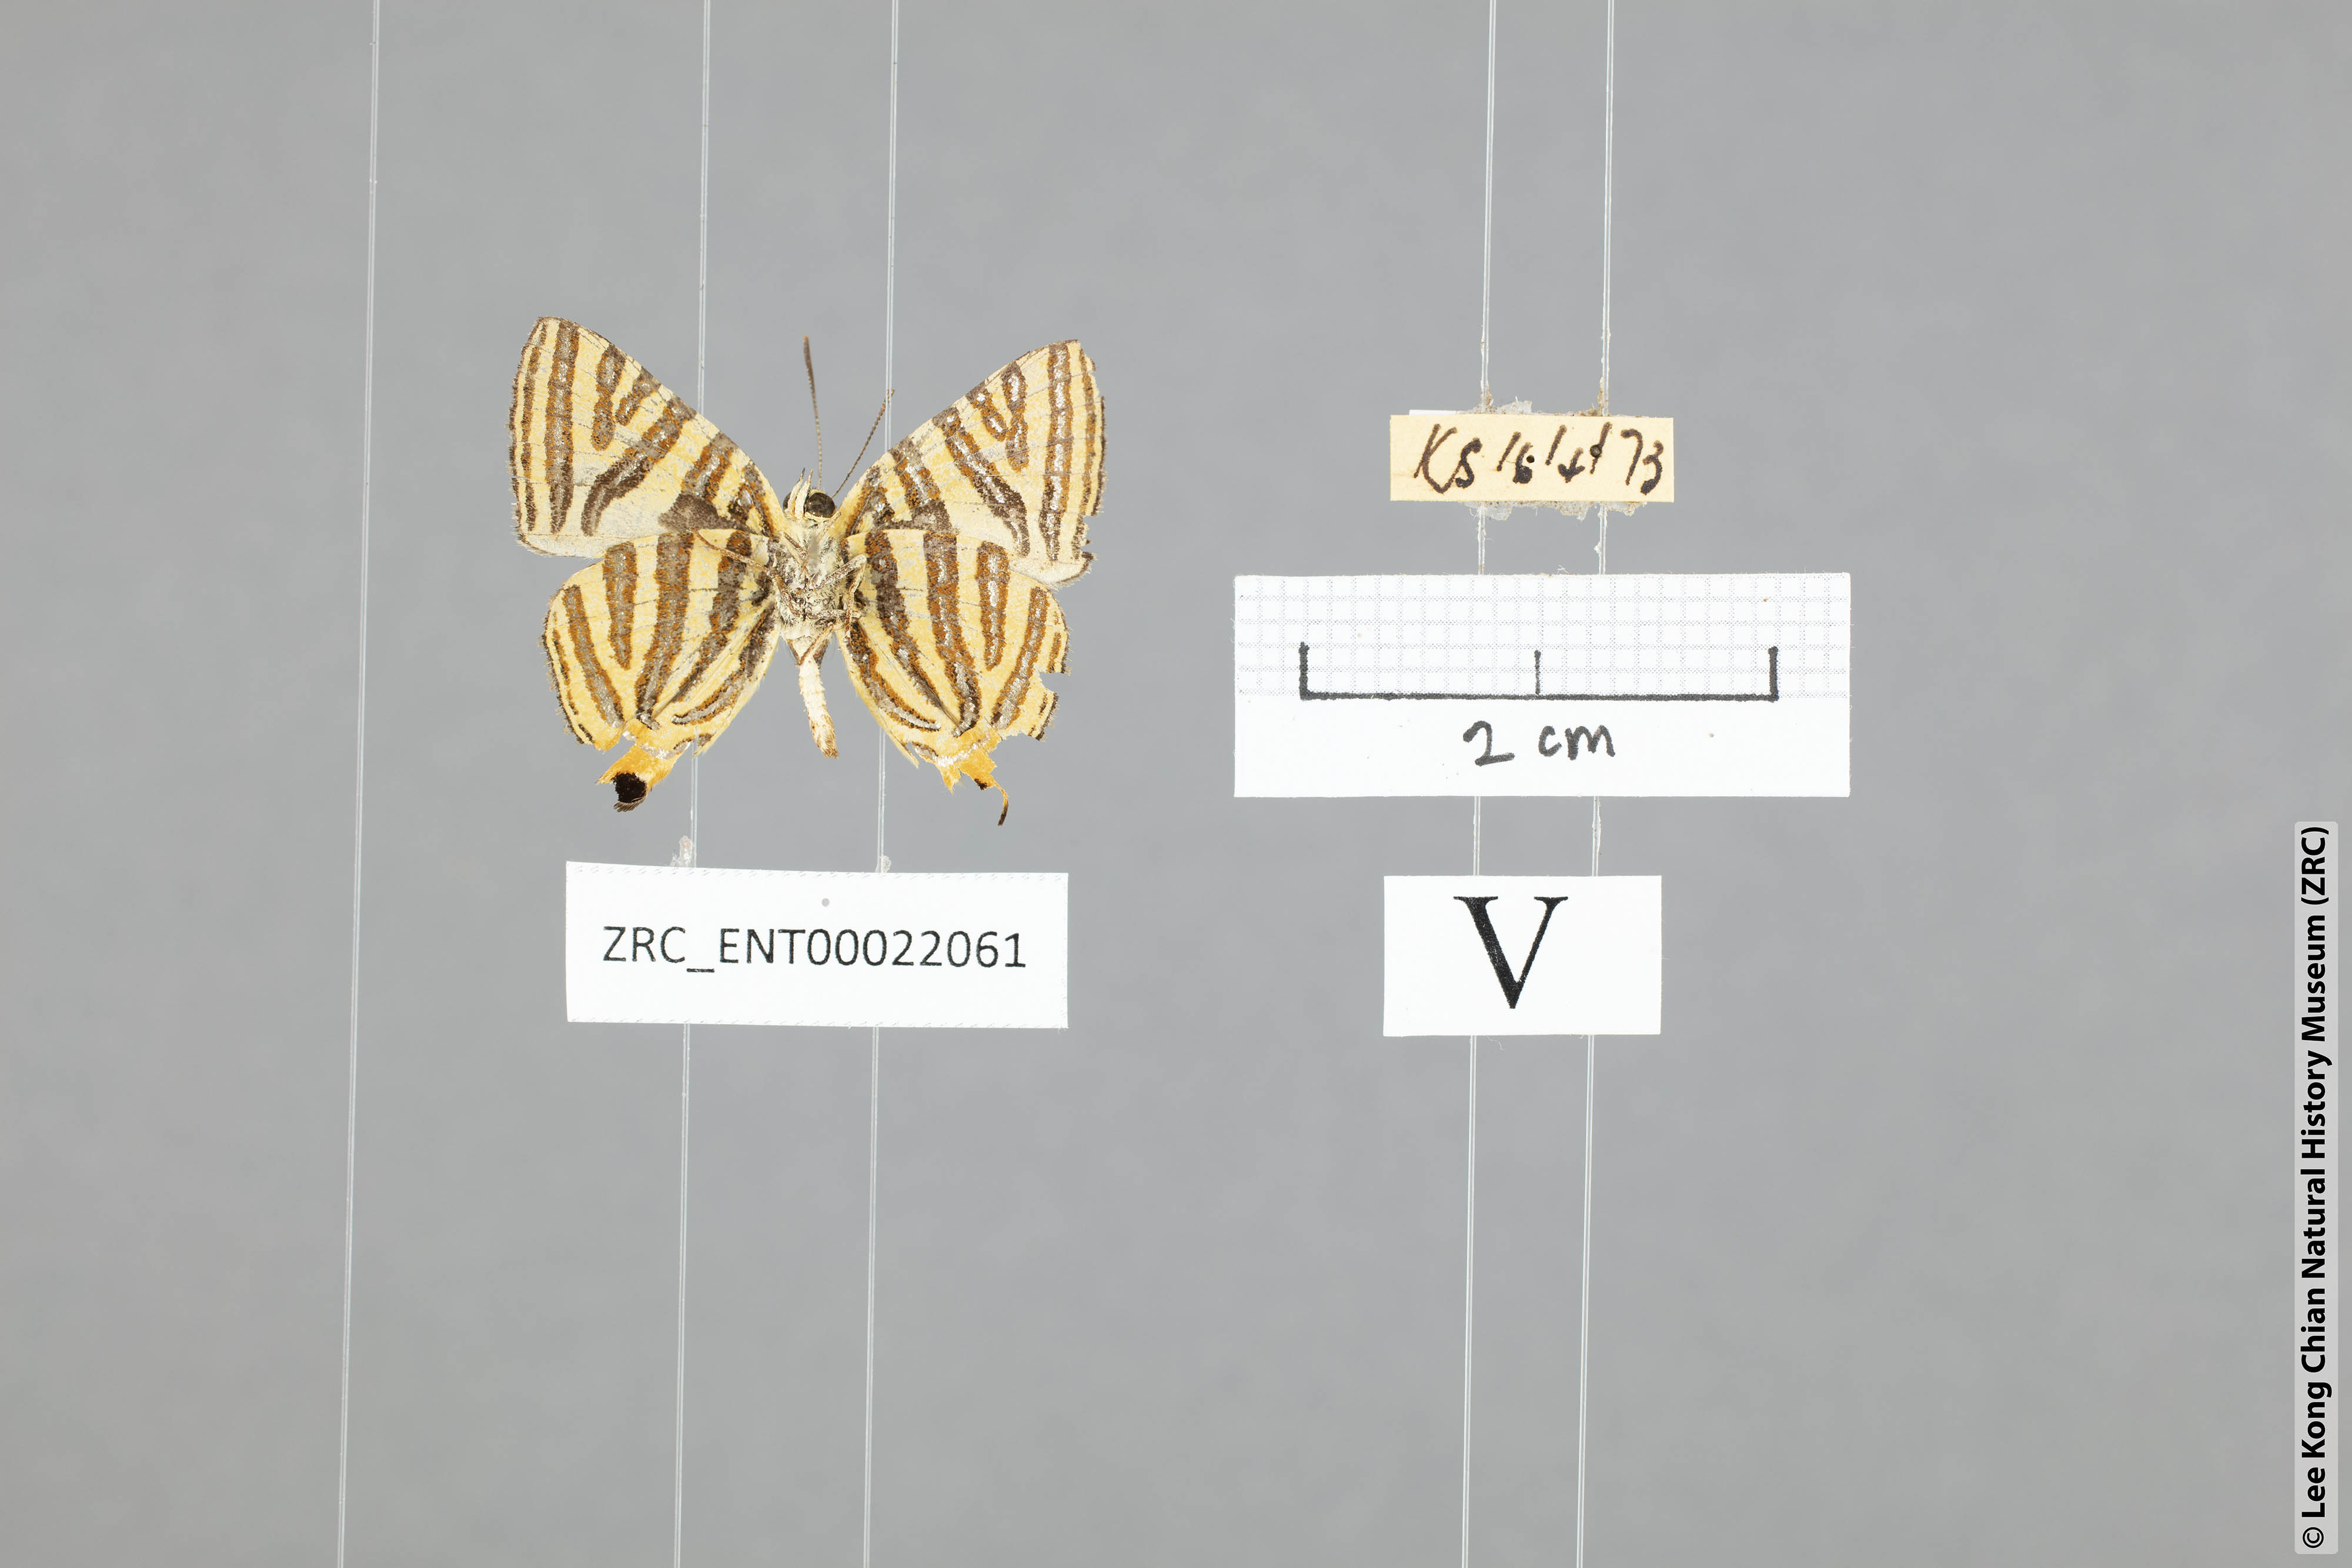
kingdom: Animalia
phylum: Arthropoda
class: Insecta
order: Lepidoptera
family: Lycaenidae
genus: Spindasis
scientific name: Spindasis lohita
